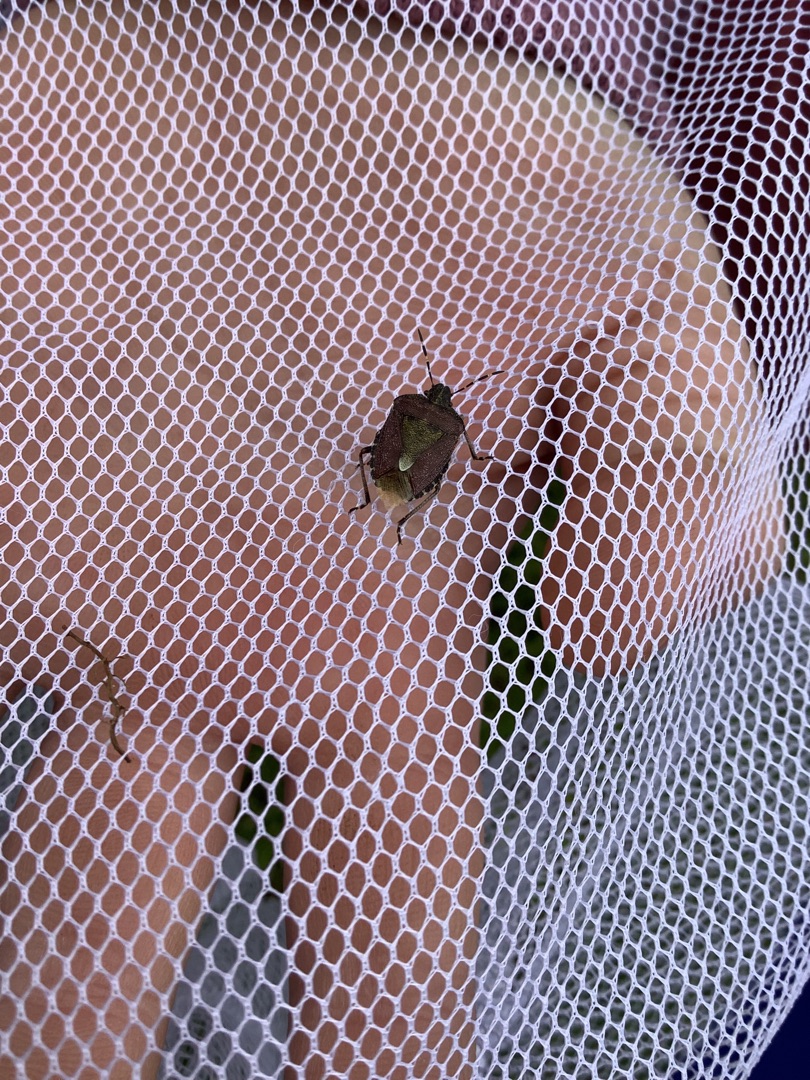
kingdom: Animalia
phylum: Arthropoda
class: Insecta
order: Hemiptera
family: Pentatomidae
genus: Dolycoris
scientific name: Dolycoris baccarum
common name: Almindelig bærtæge
